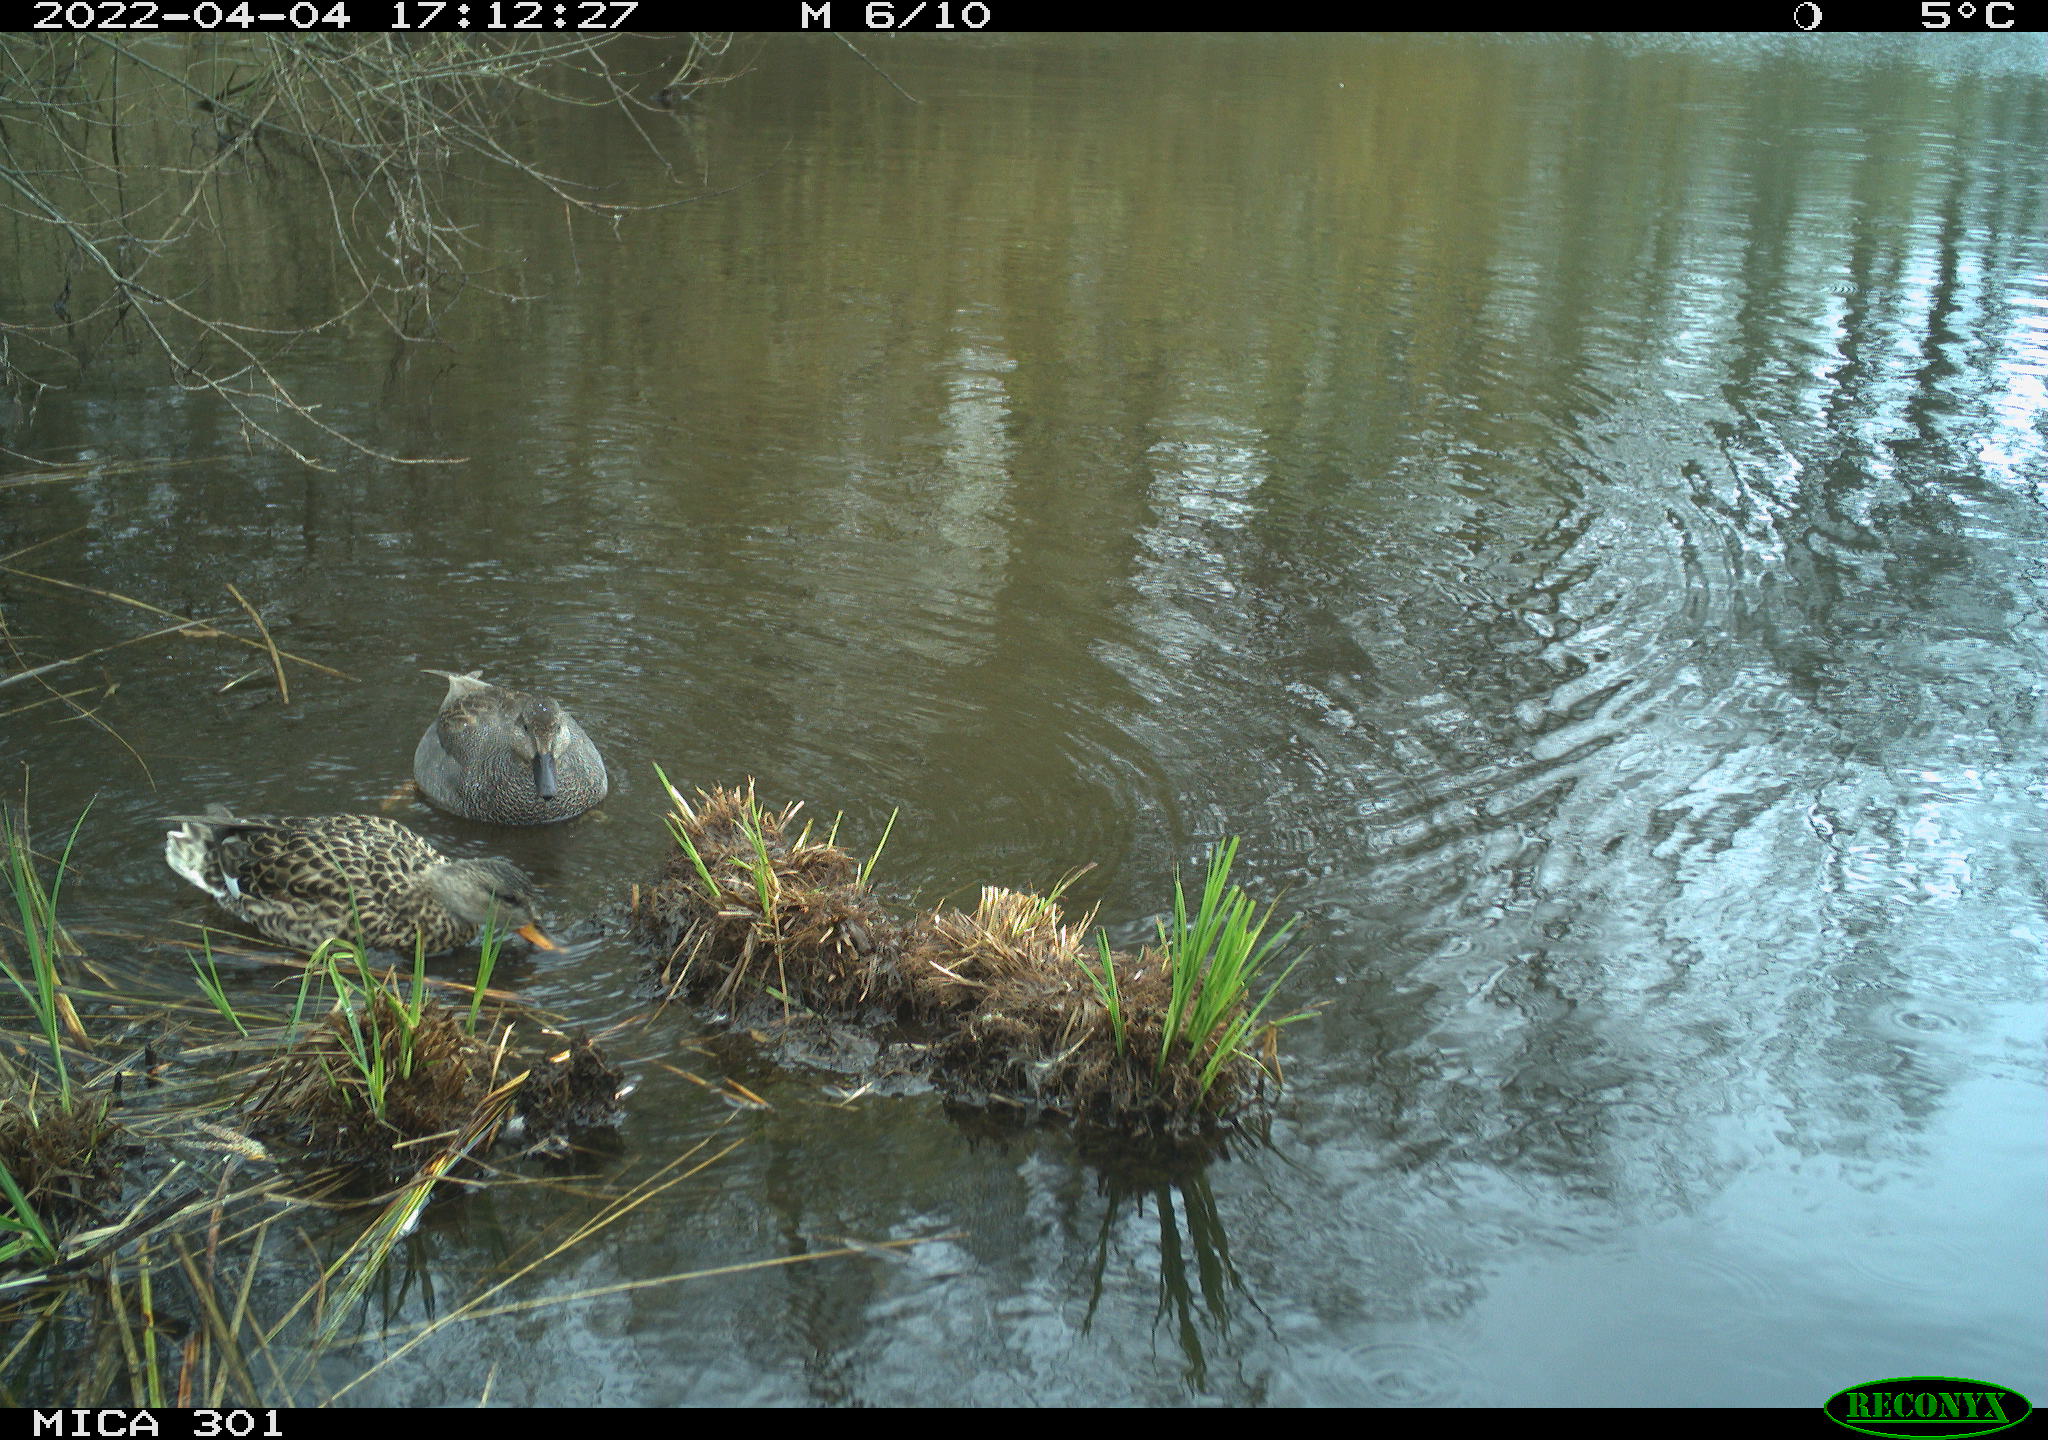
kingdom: Animalia
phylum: Chordata
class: Aves
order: Anseriformes
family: Anatidae
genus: Mareca
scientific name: Mareca strepera
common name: Gadwall
